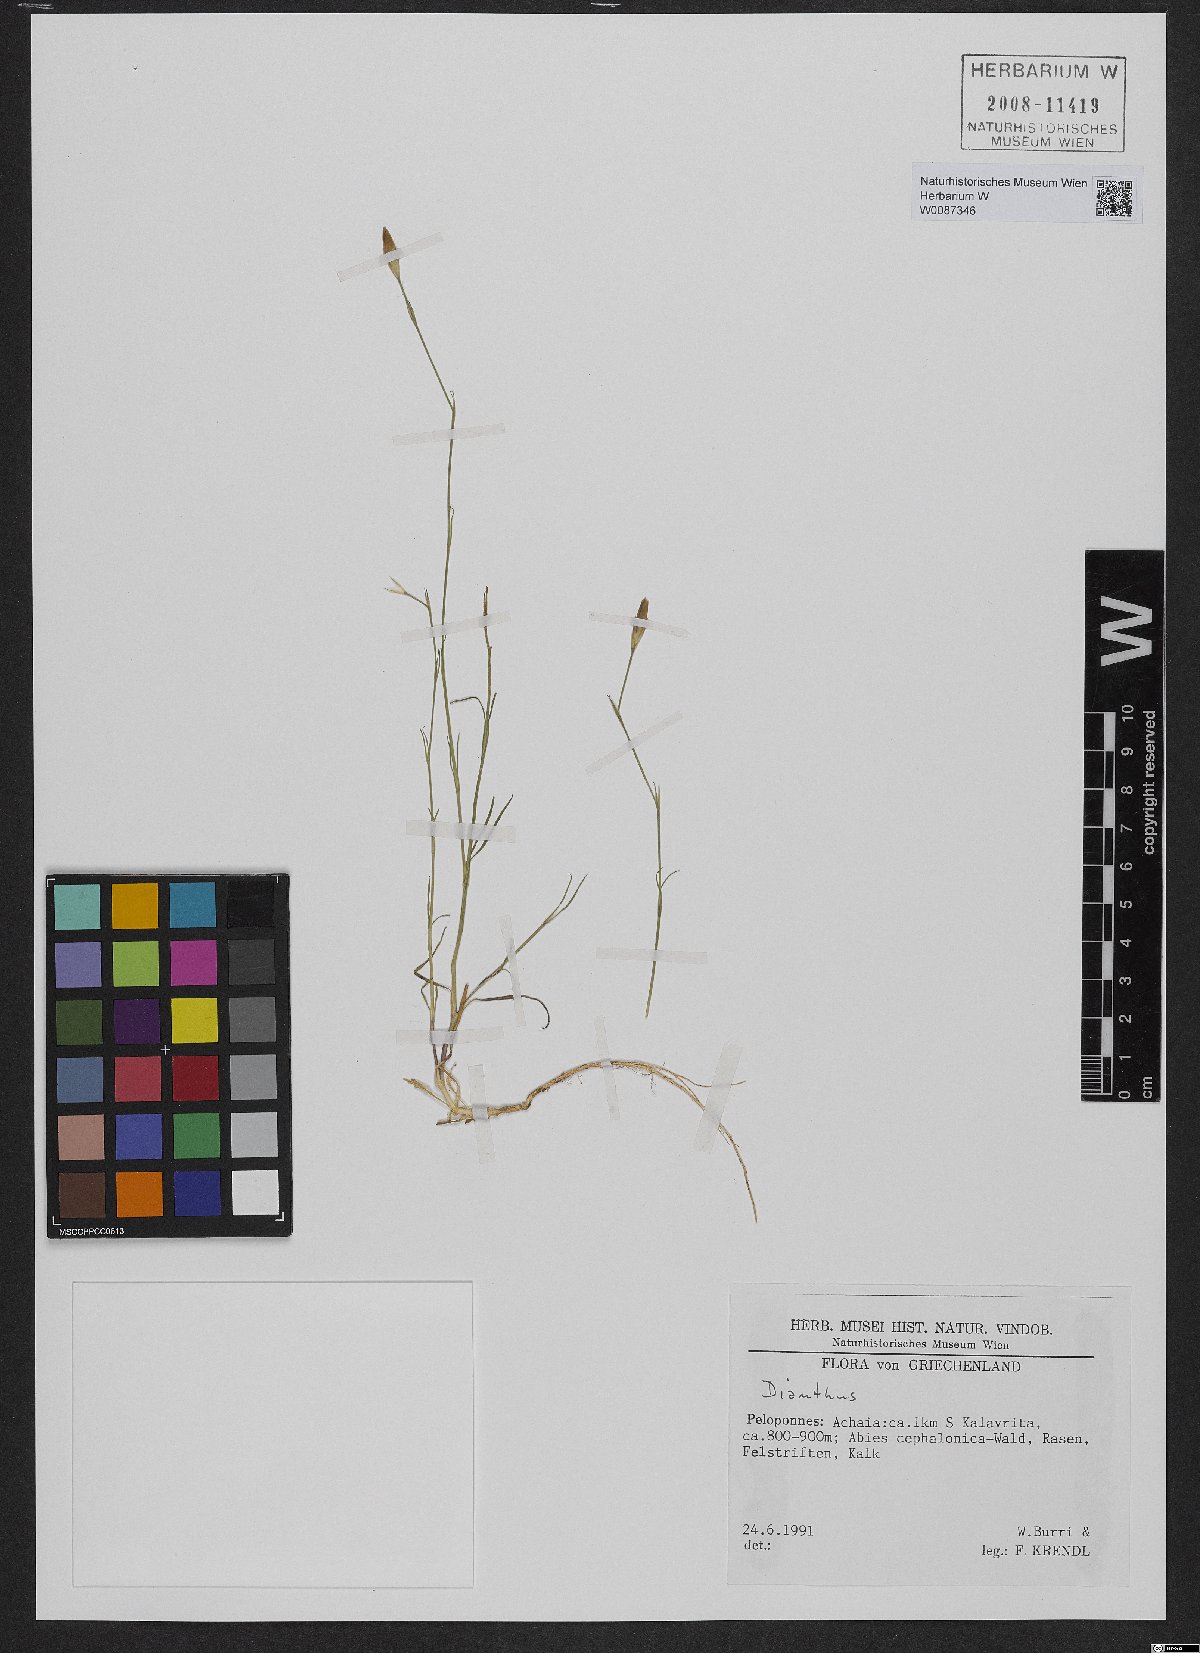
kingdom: Plantae
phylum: Tracheophyta
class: Magnoliopsida
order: Caryophyllales
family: Caryophyllaceae
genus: Dianthus
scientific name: Dianthus
